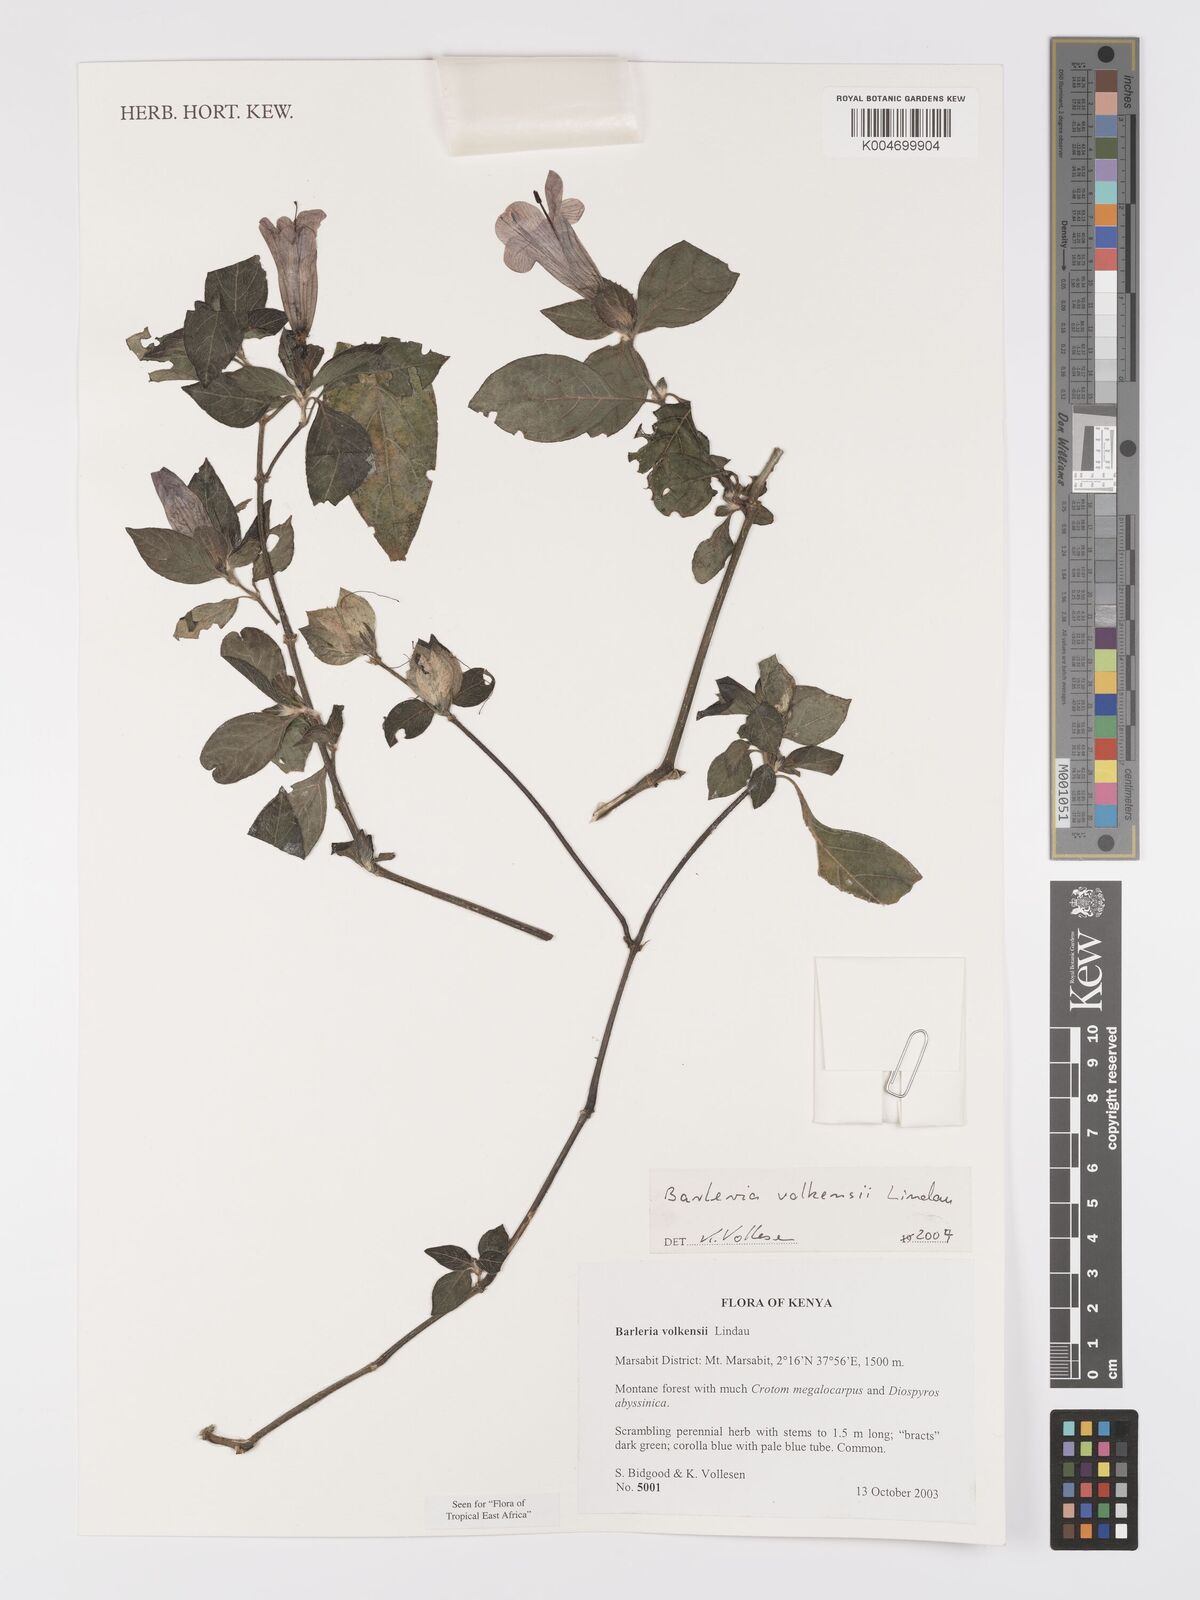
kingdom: Plantae
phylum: Tracheophyta
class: Magnoliopsida
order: Lamiales
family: Acanthaceae
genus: Barleria
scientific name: Barleria volkensii
